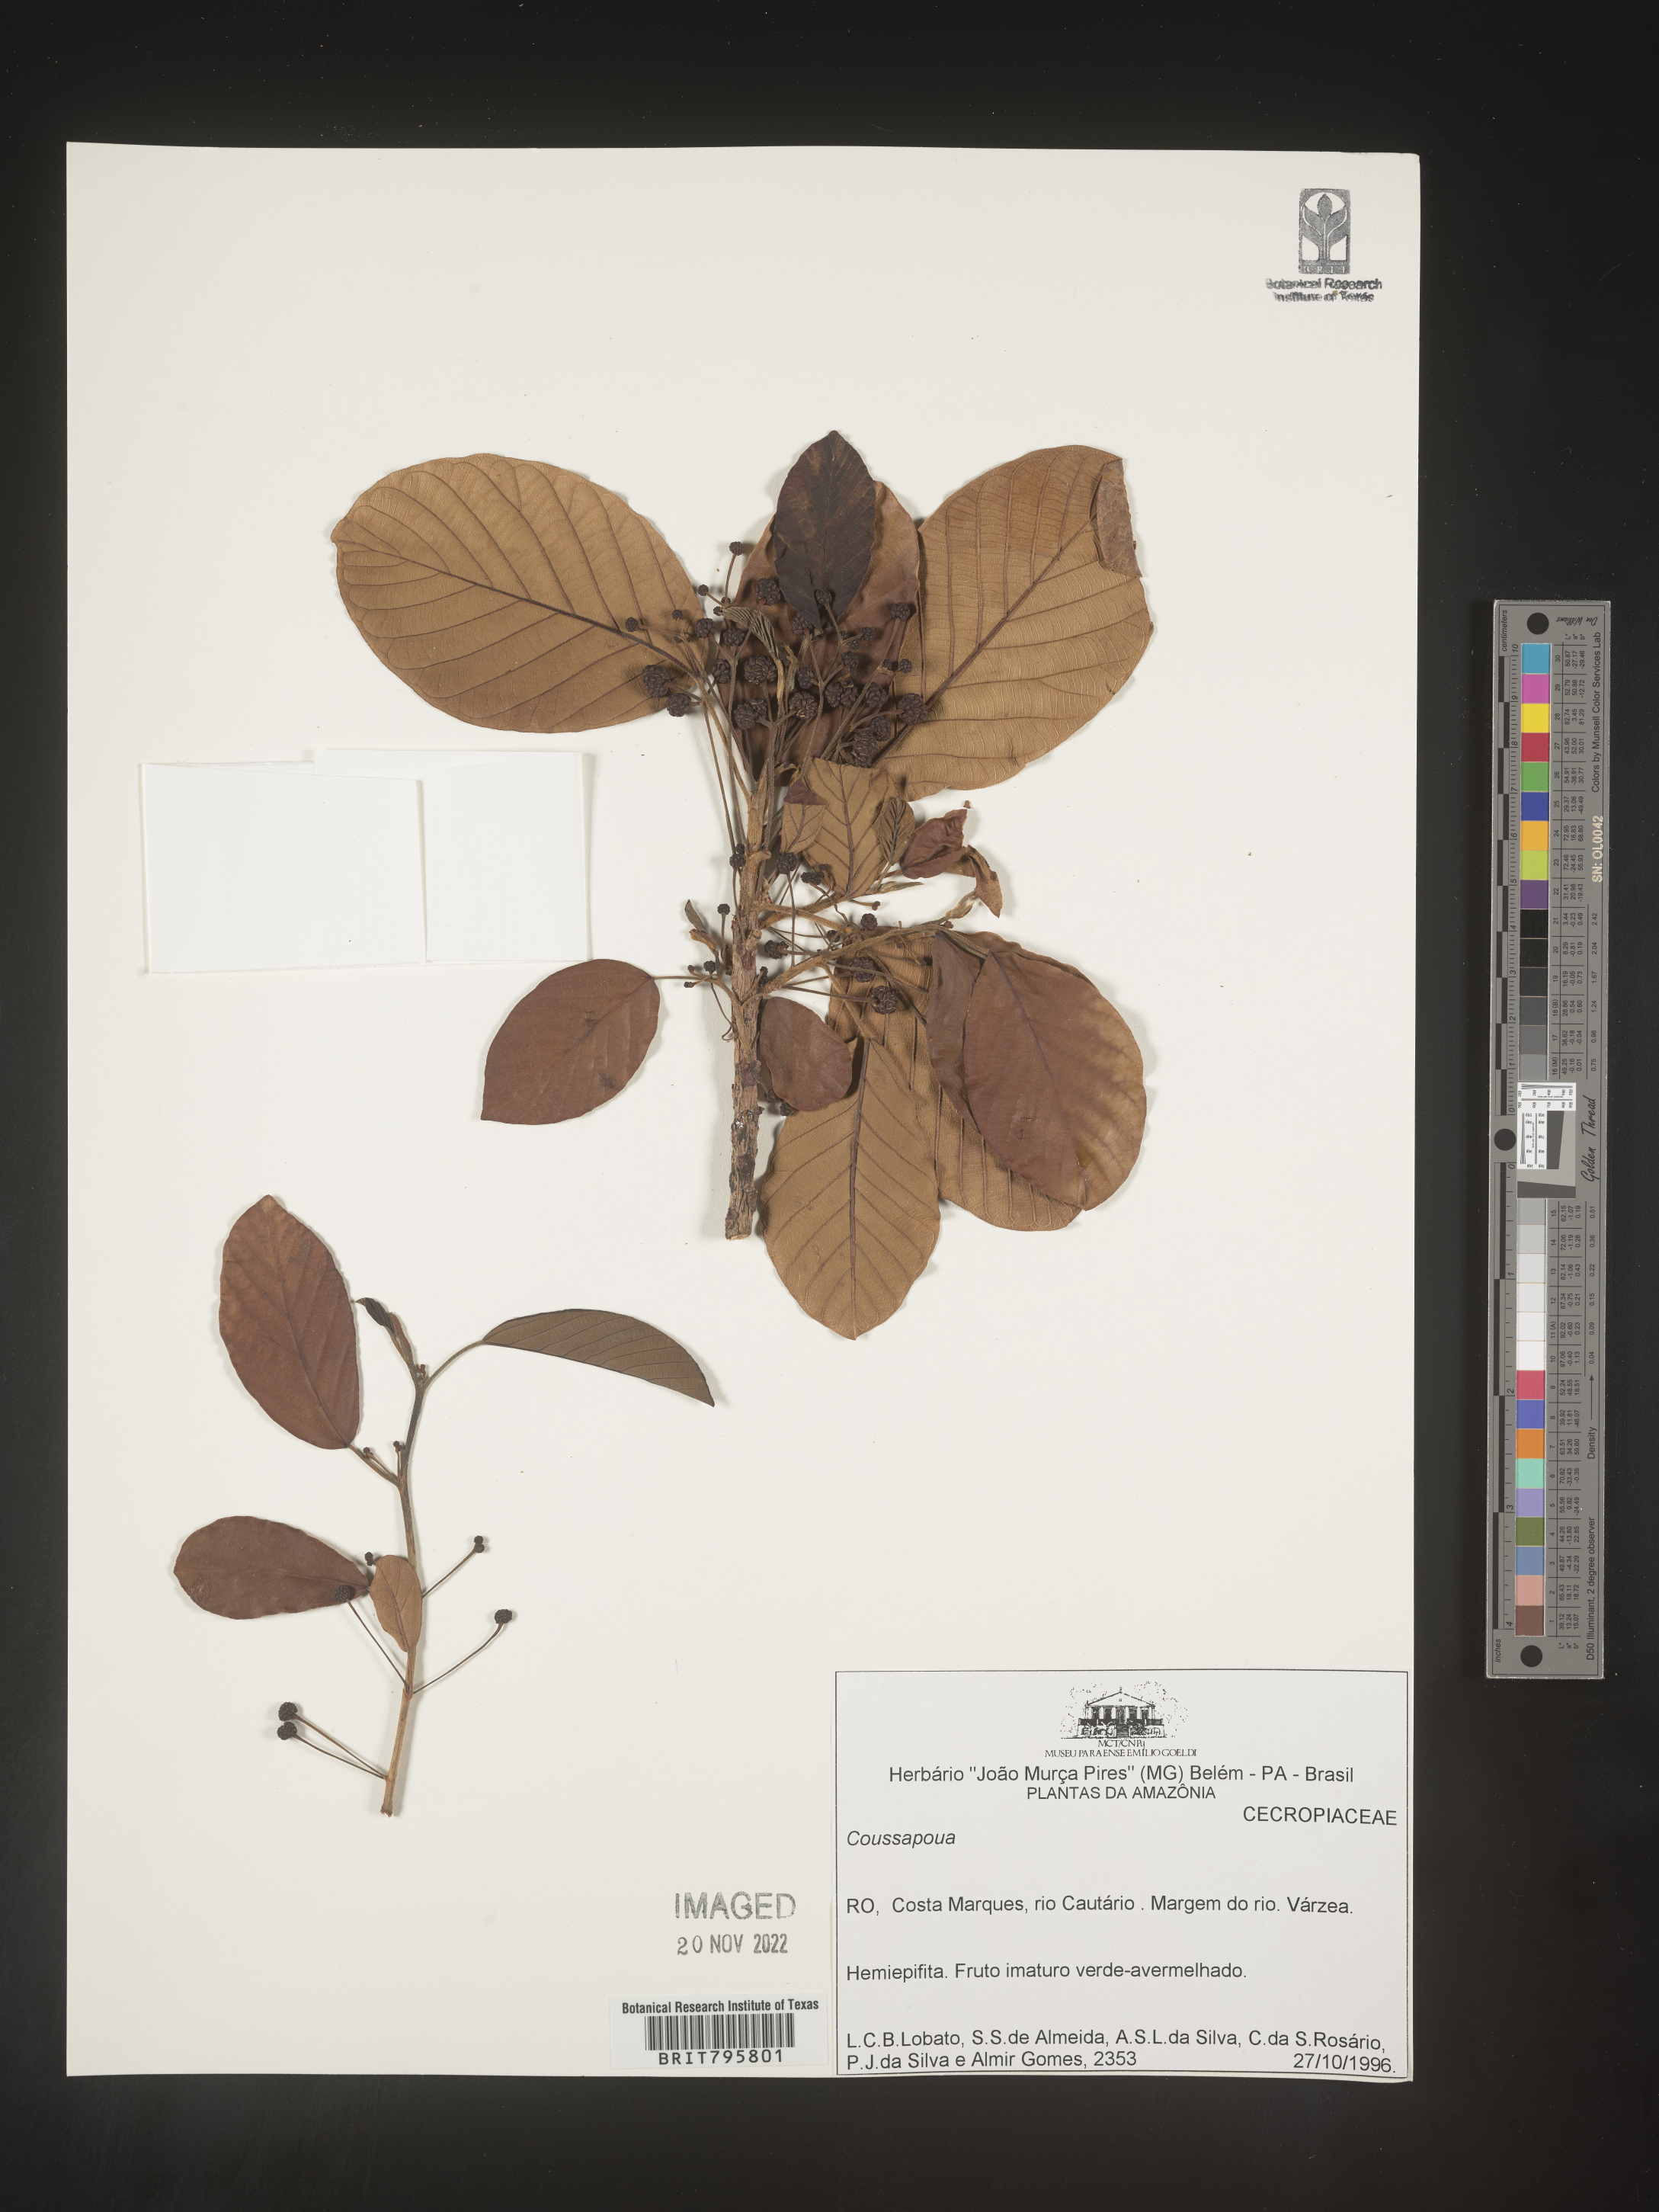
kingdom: Plantae
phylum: Tracheophyta
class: Magnoliopsida
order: Rosales
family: Urticaceae
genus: Coussapoa
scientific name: Coussapoa
